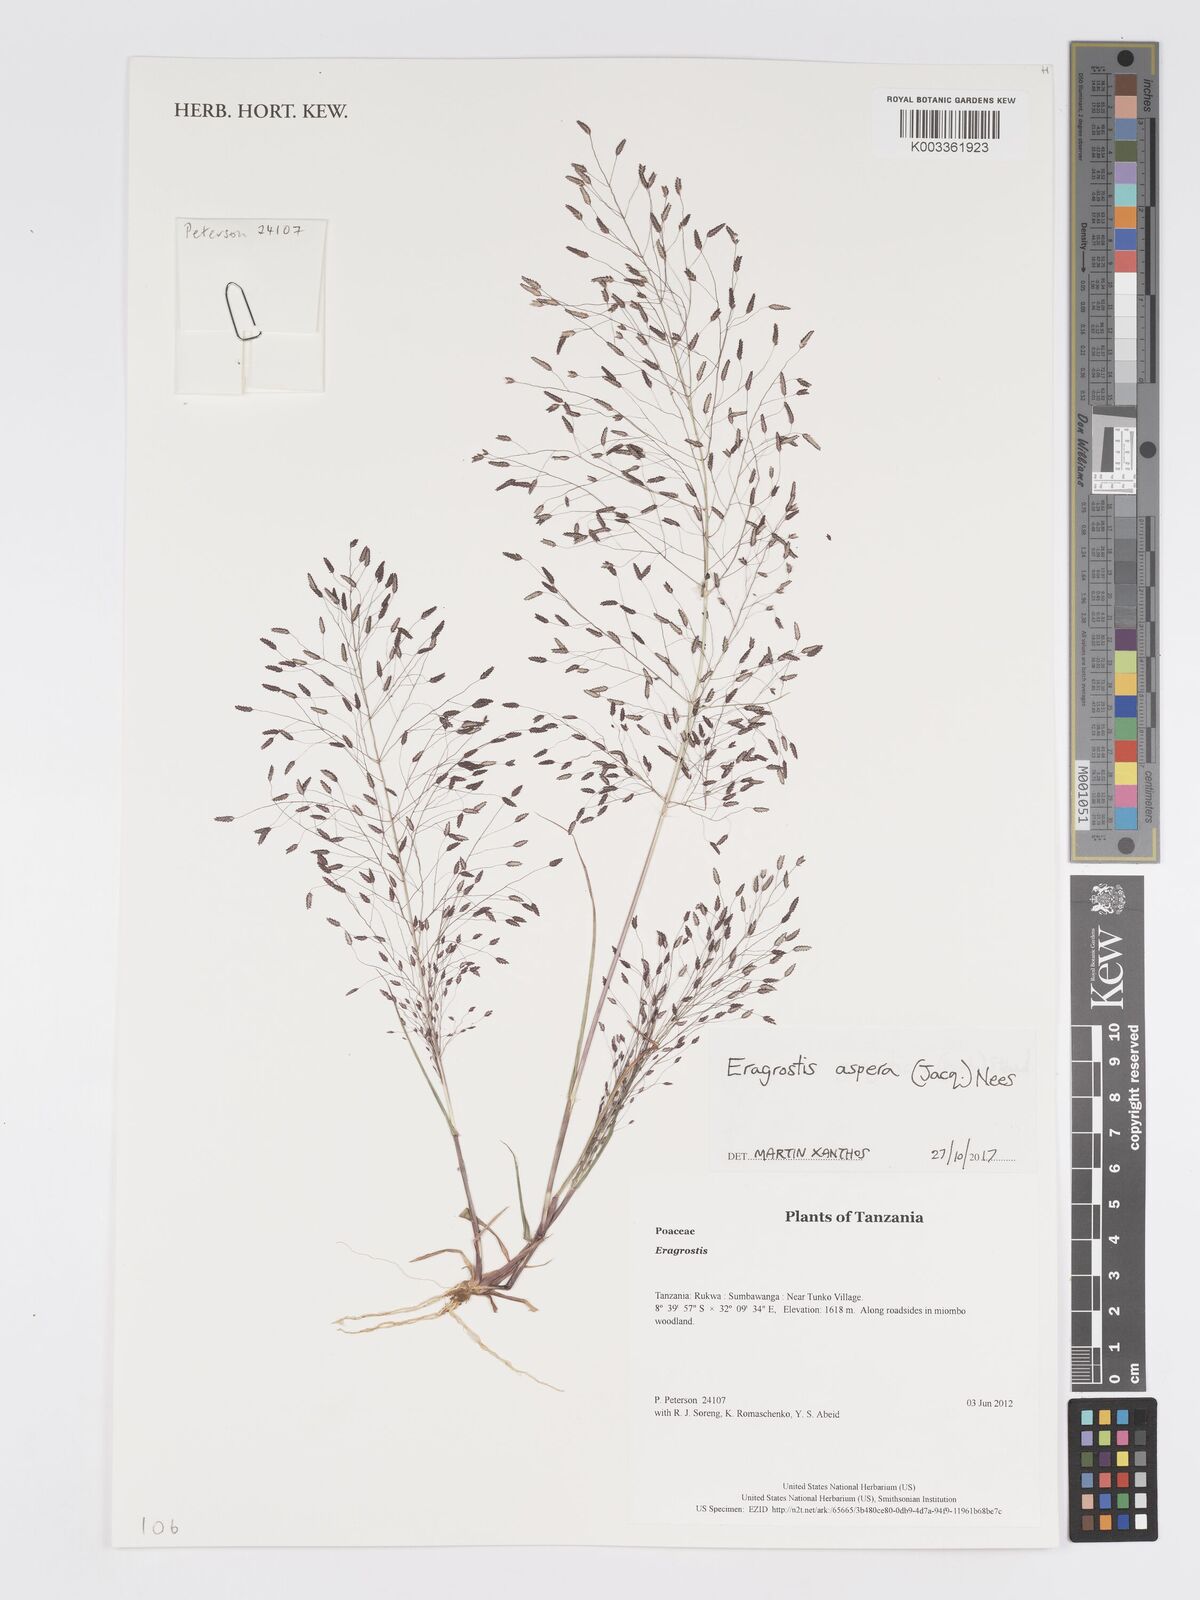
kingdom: Plantae
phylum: Tracheophyta
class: Liliopsida
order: Poales
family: Poaceae
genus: Eragrostis
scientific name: Eragrostis aspera
